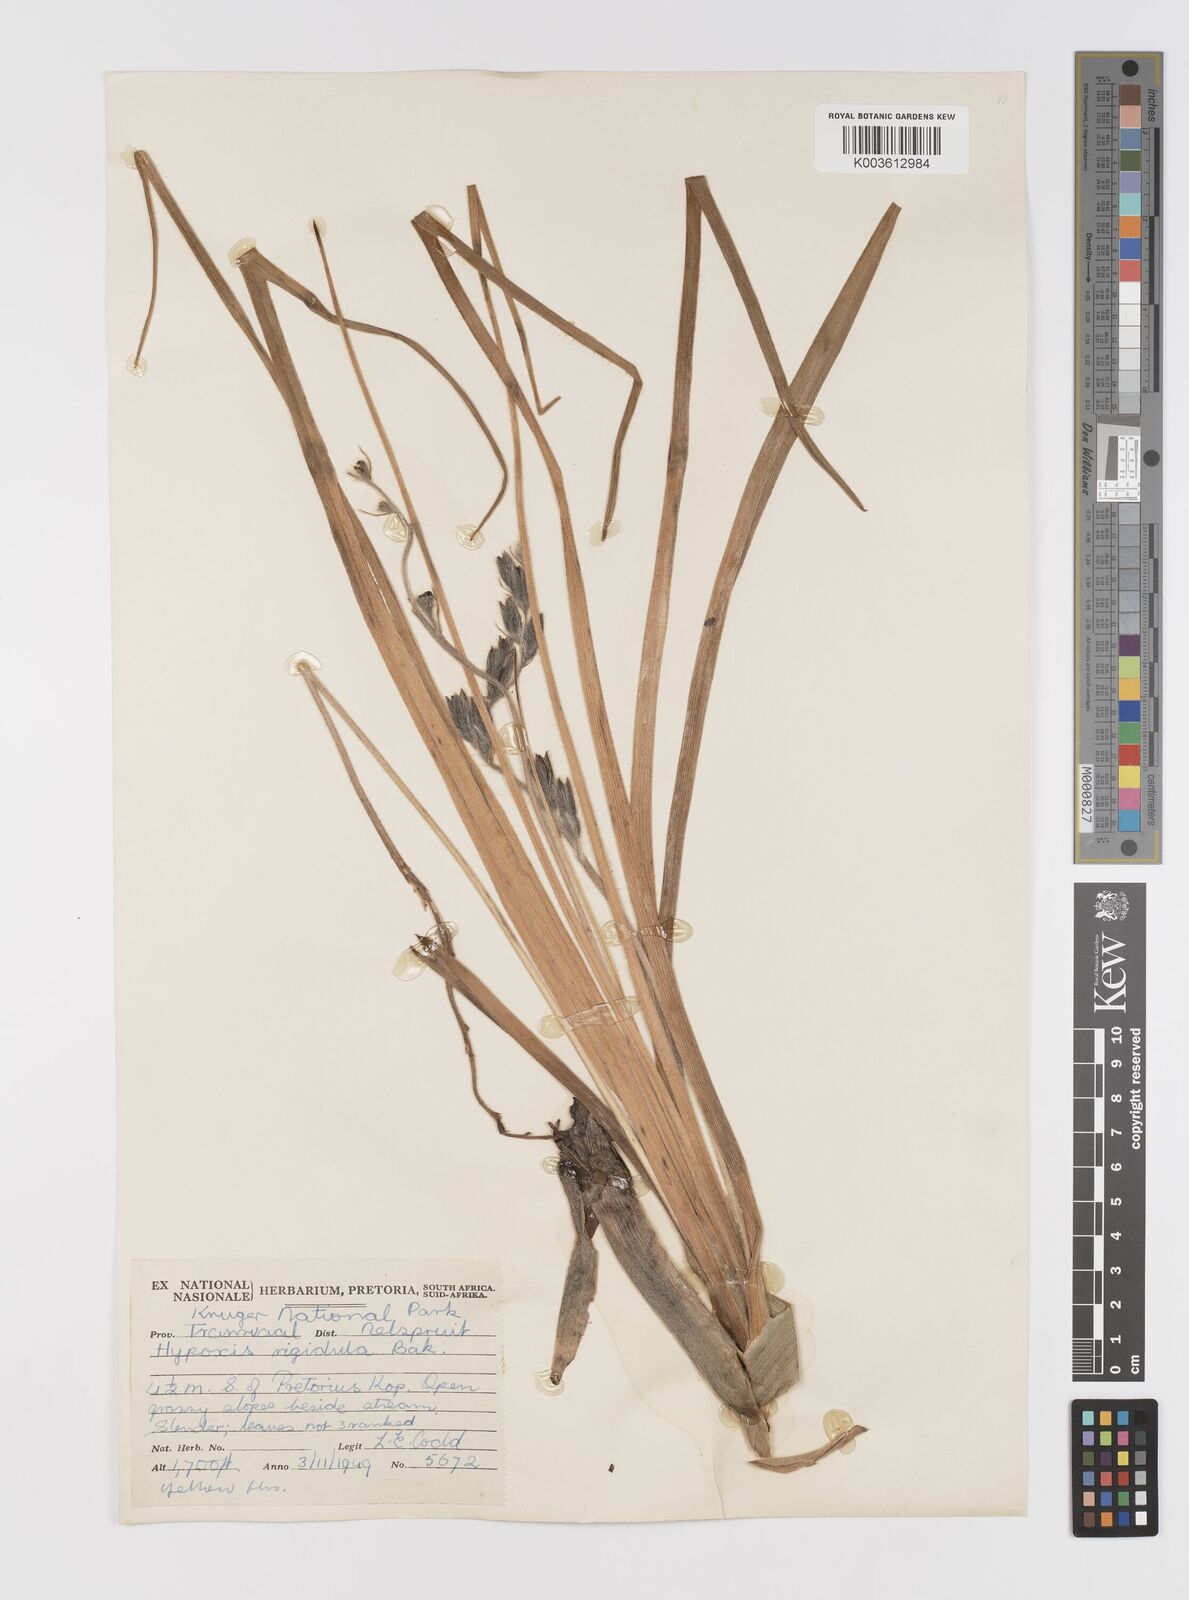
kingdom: Plantae
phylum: Tracheophyta
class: Liliopsida
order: Asparagales
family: Hypoxidaceae
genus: Hypoxis
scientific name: Hypoxis rigidula
